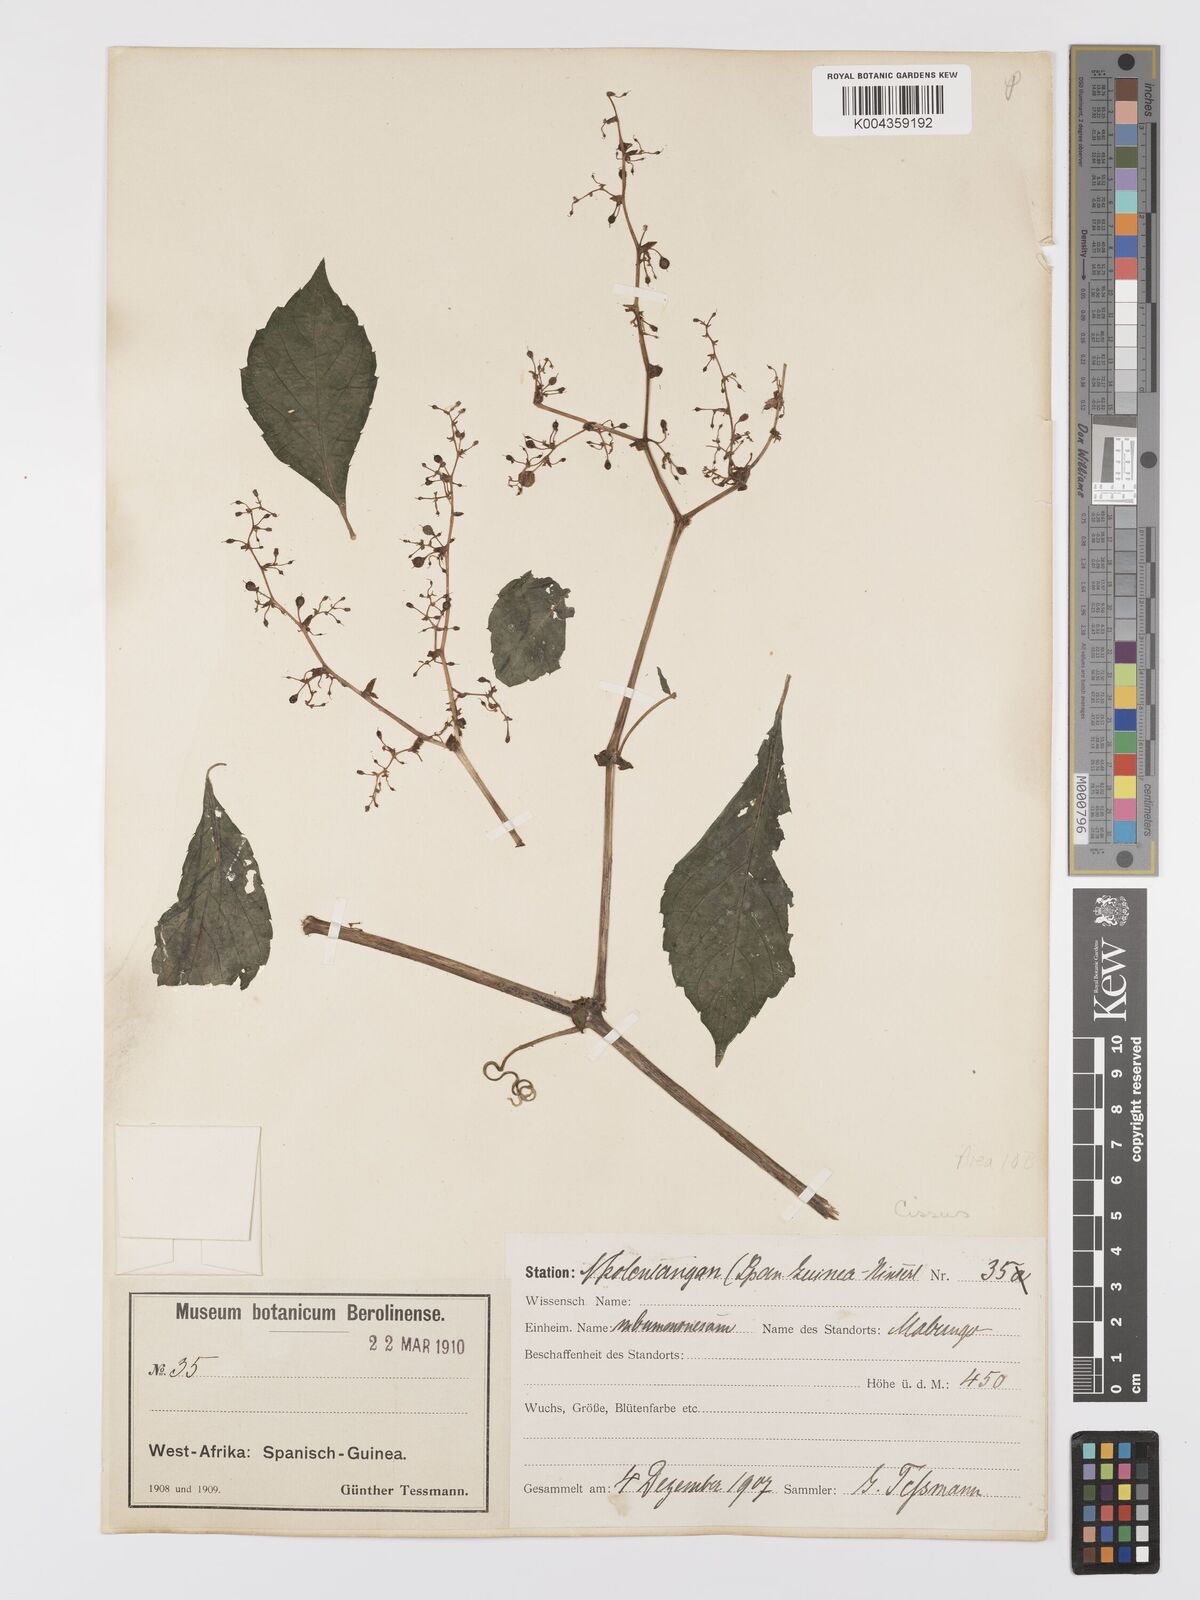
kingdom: Plantae
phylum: Tracheophyta
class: Magnoliopsida
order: Vitales
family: Vitaceae
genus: Cyphostemma
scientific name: Cyphostemma
